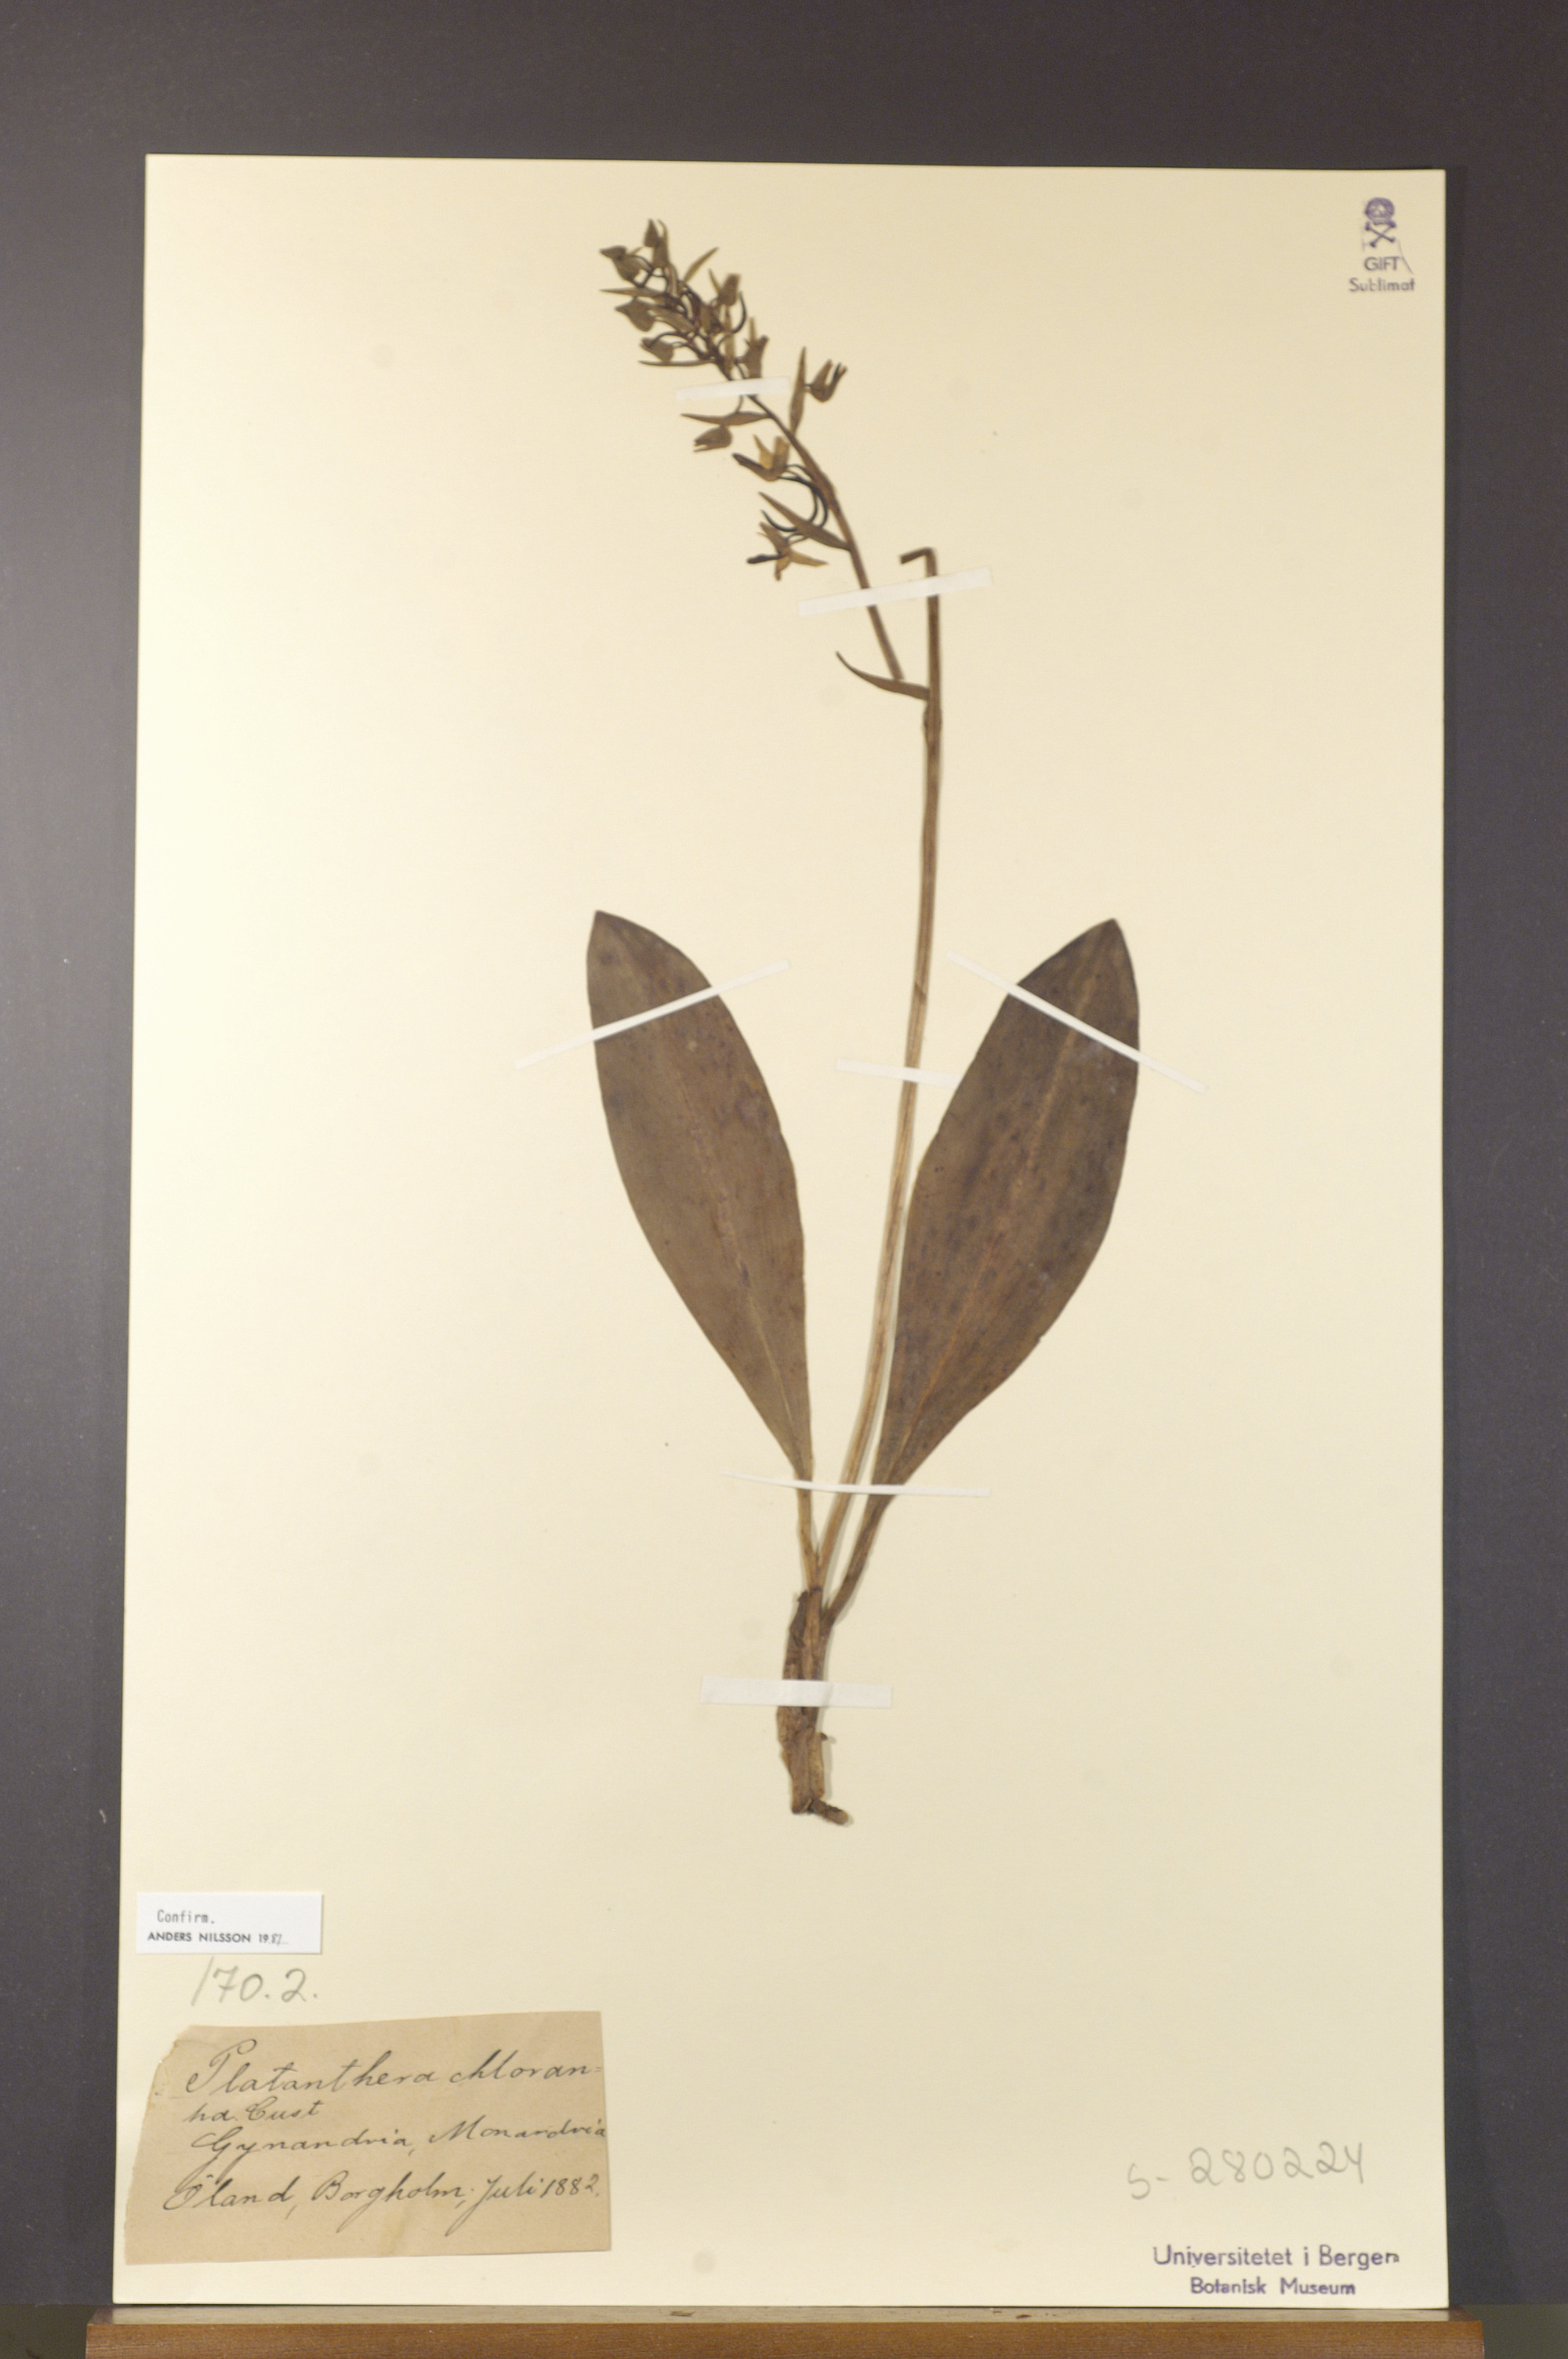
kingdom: Plantae
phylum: Tracheophyta
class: Liliopsida
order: Asparagales
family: Orchidaceae
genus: Platanthera
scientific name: Platanthera chlorantha
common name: Greater butterfly-orchid
